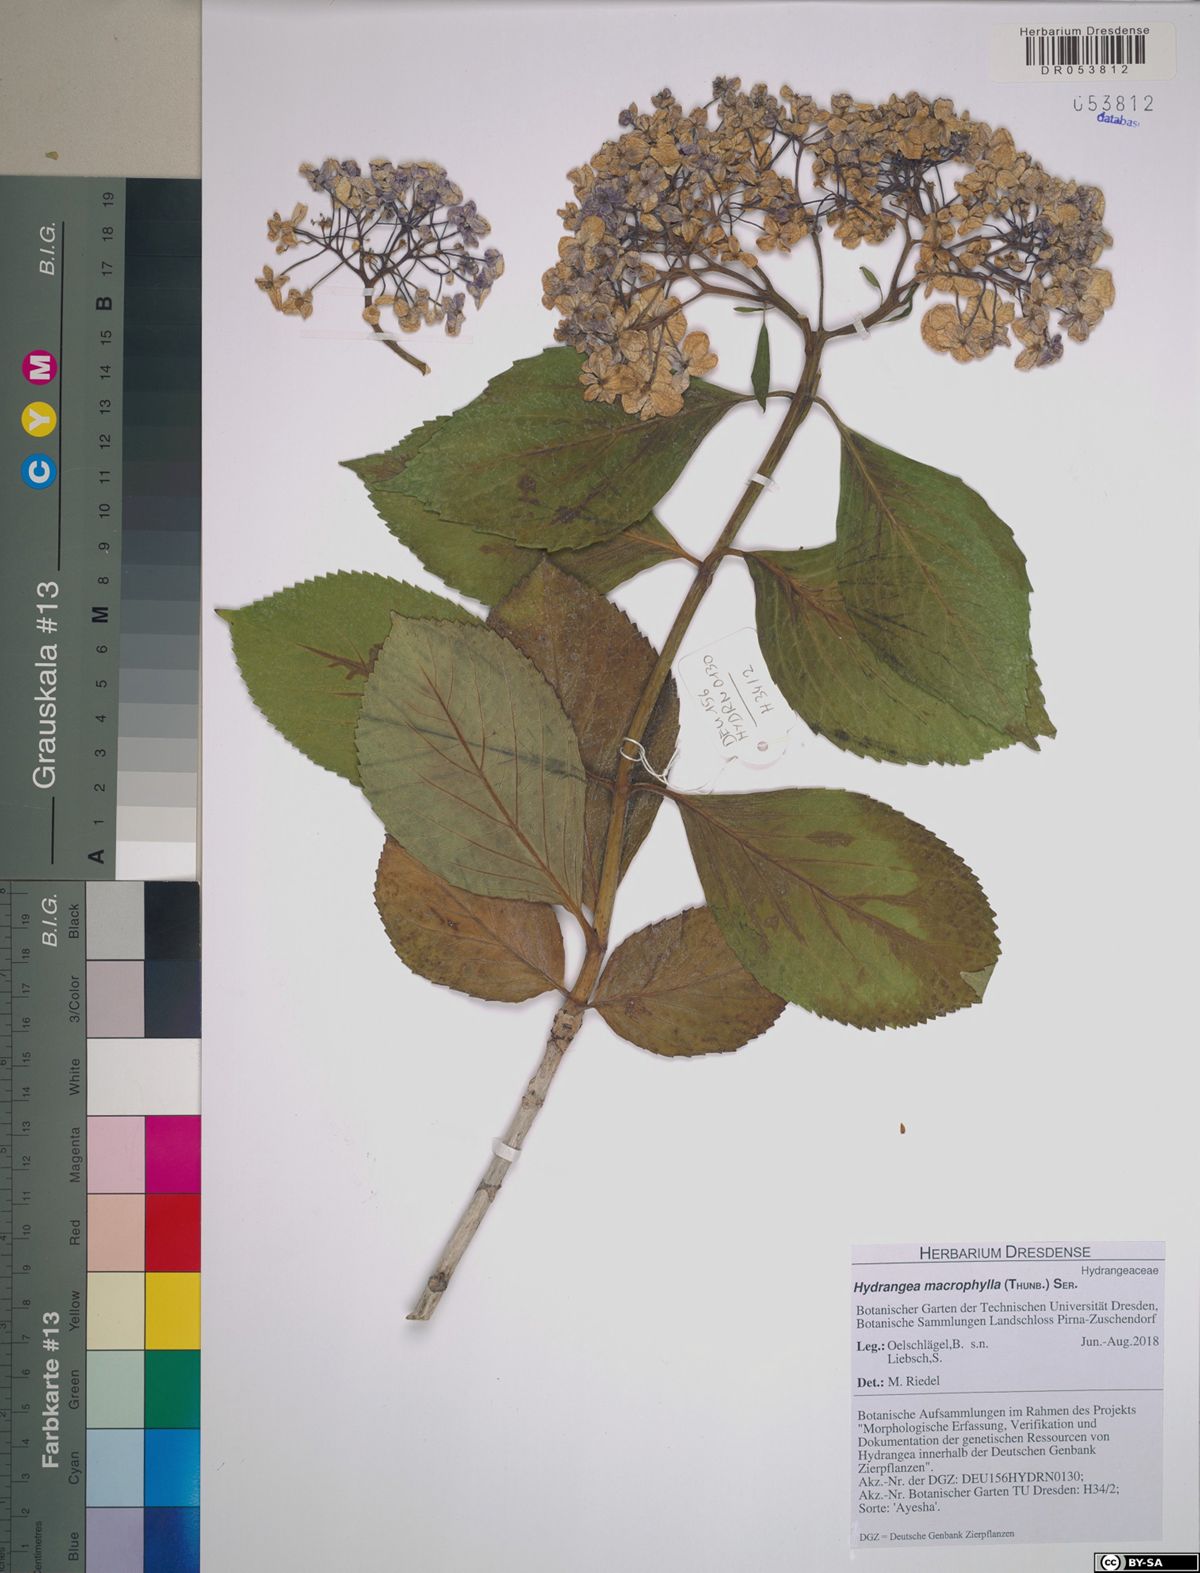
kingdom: Plantae
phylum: Tracheophyta
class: Magnoliopsida
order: Cornales
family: Hydrangeaceae
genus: Hydrangea
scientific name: Hydrangea macrophylla
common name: Hydrangea
